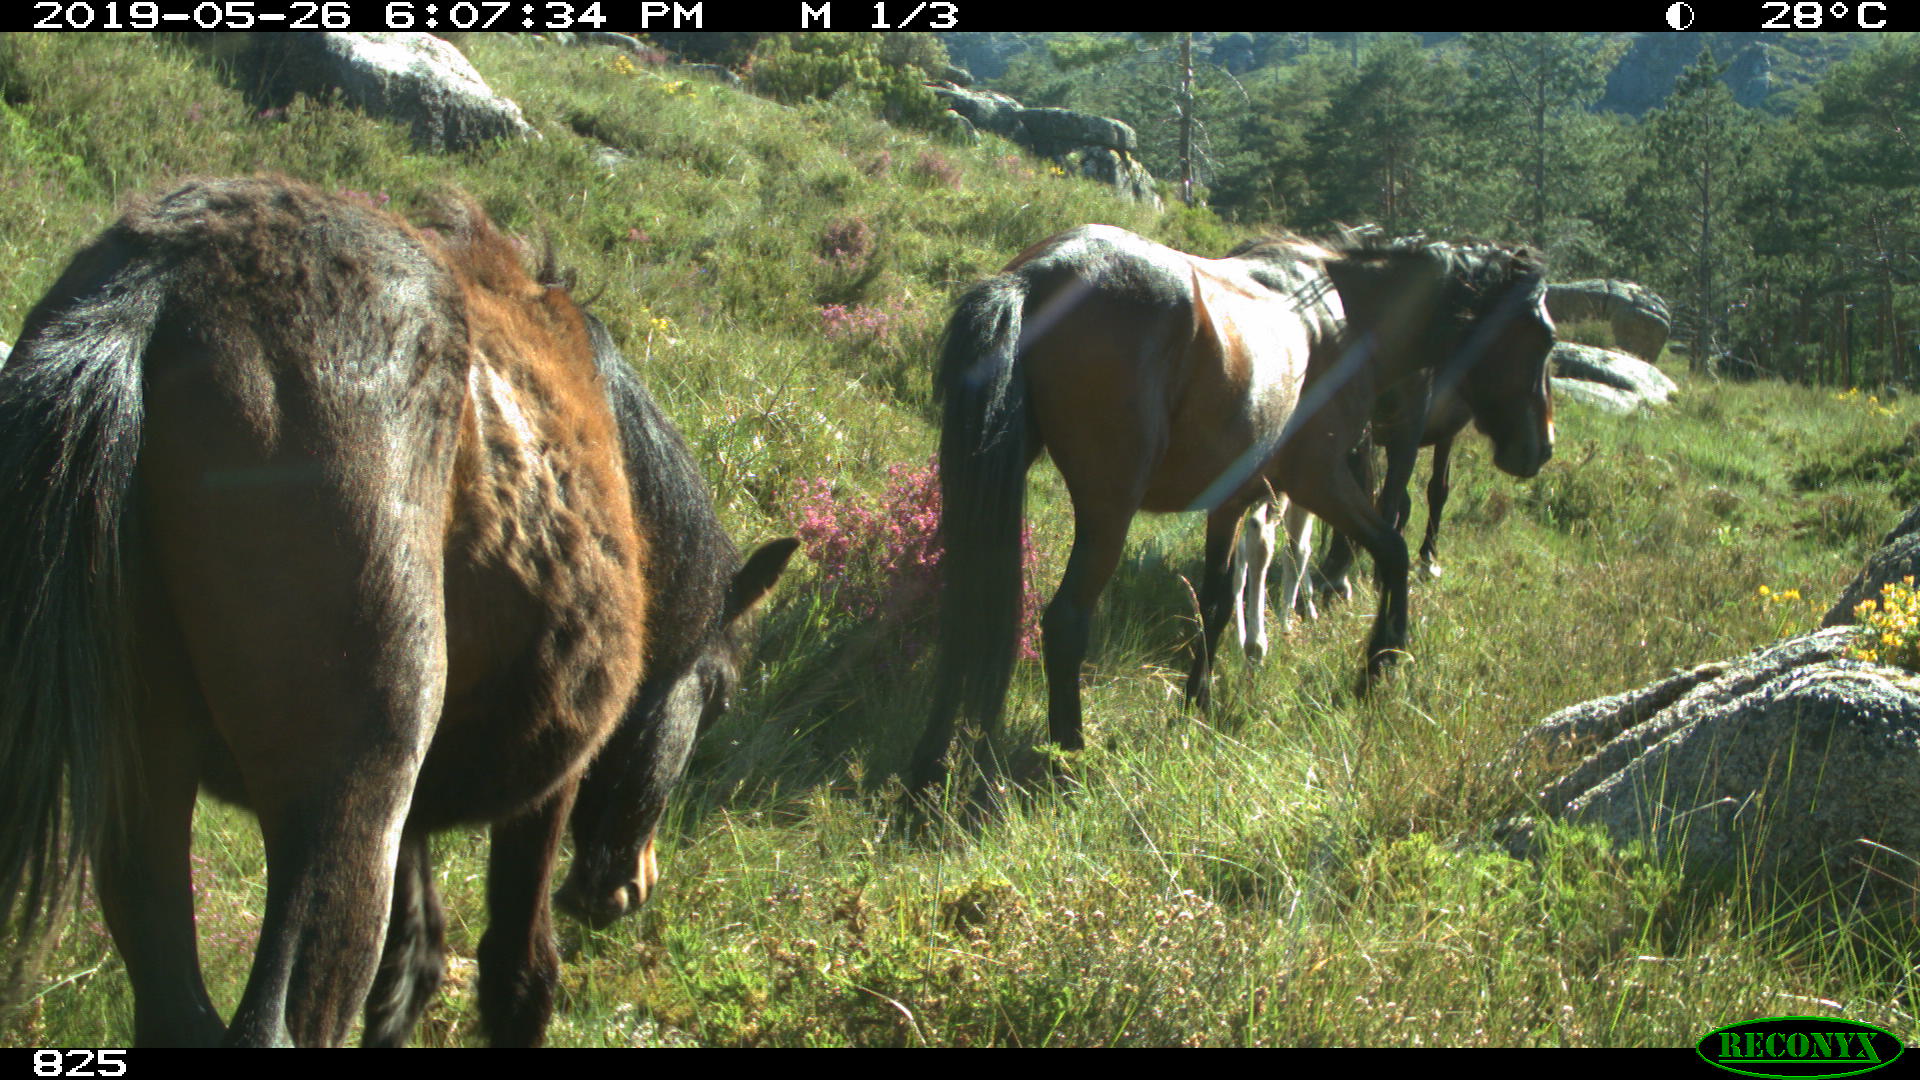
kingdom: Animalia
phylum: Chordata
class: Mammalia
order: Perissodactyla
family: Equidae
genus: Equus
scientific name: Equus caballus
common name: Horse
